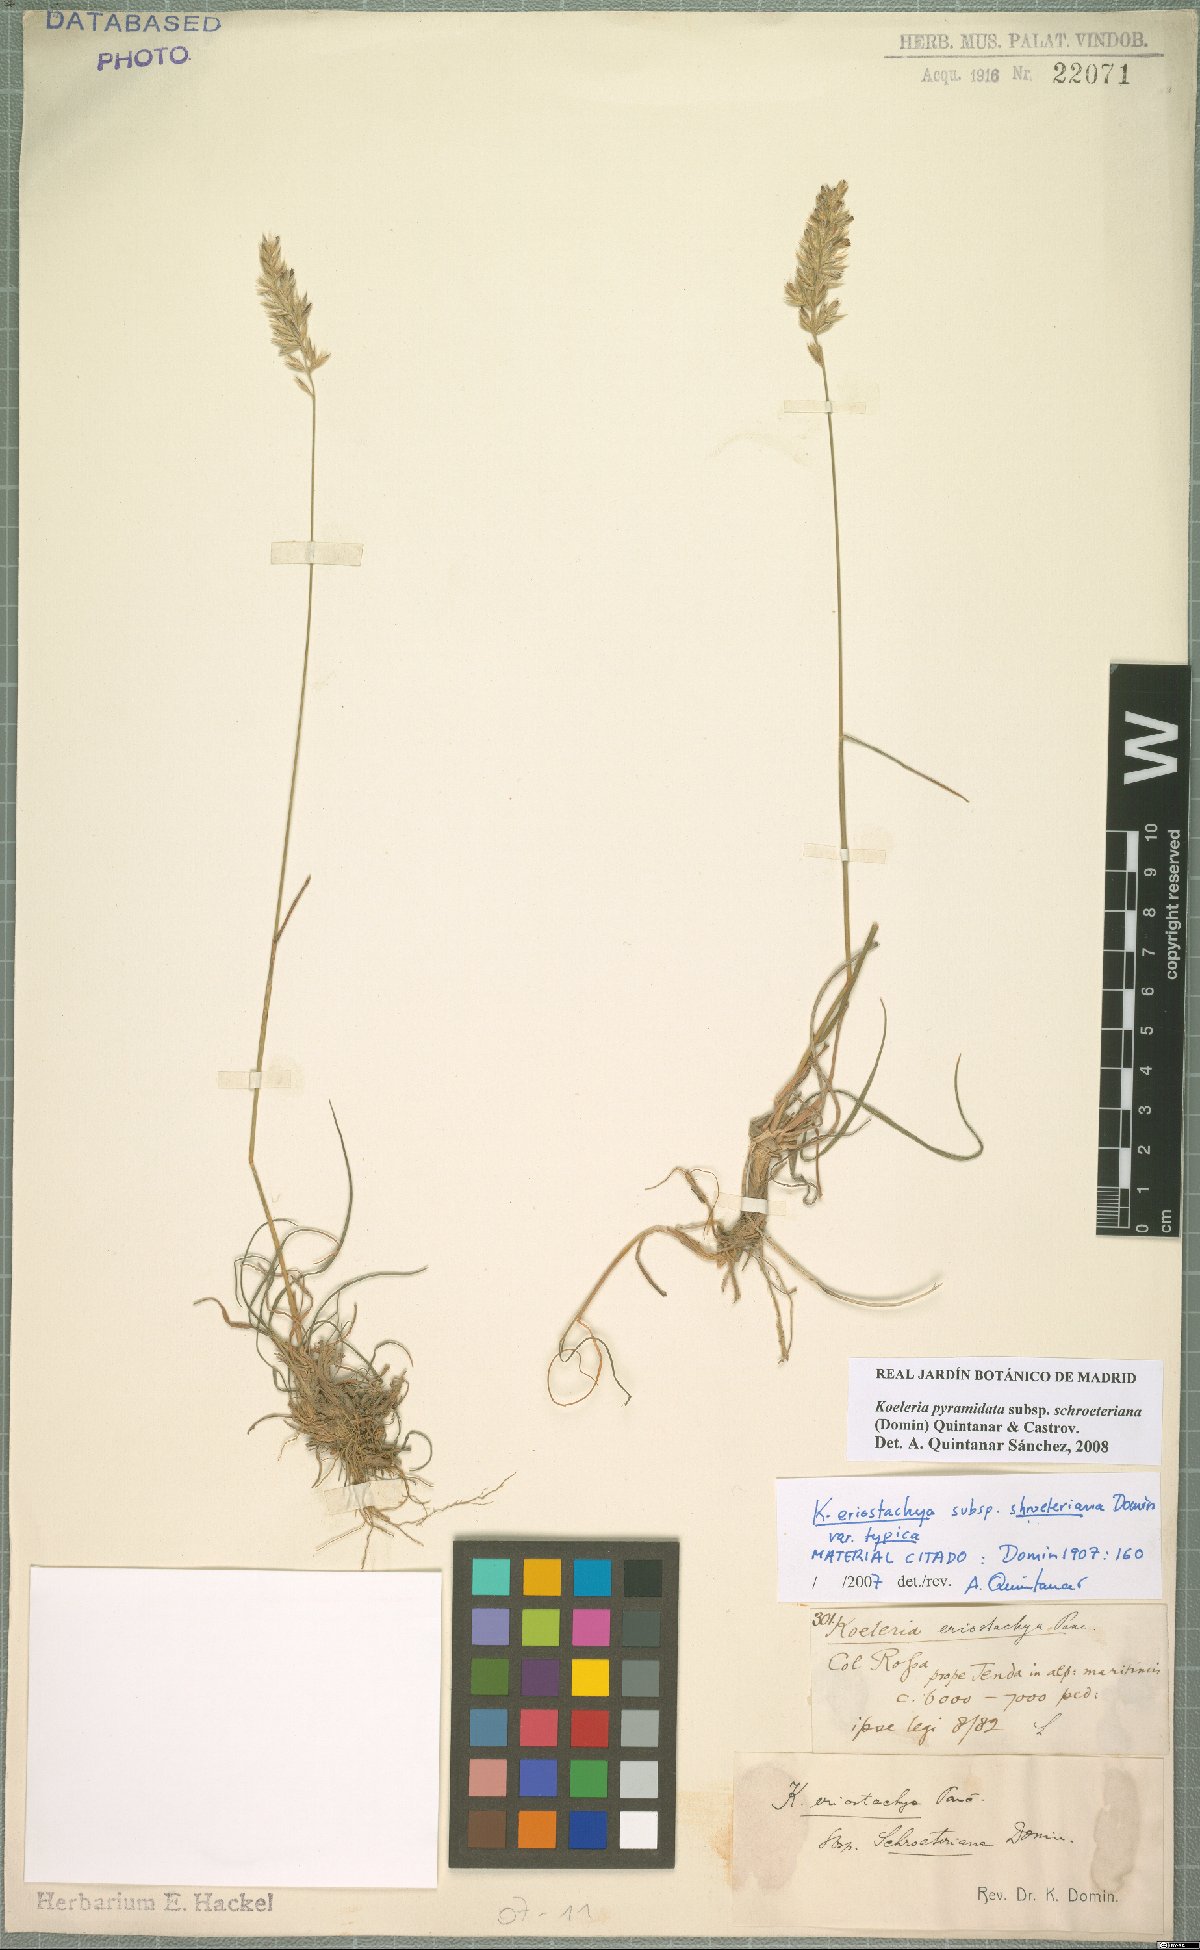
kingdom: Plantae
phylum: Tracheophyta
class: Liliopsida
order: Poales
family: Poaceae
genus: Koeleria
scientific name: Koeleria pyramidata
